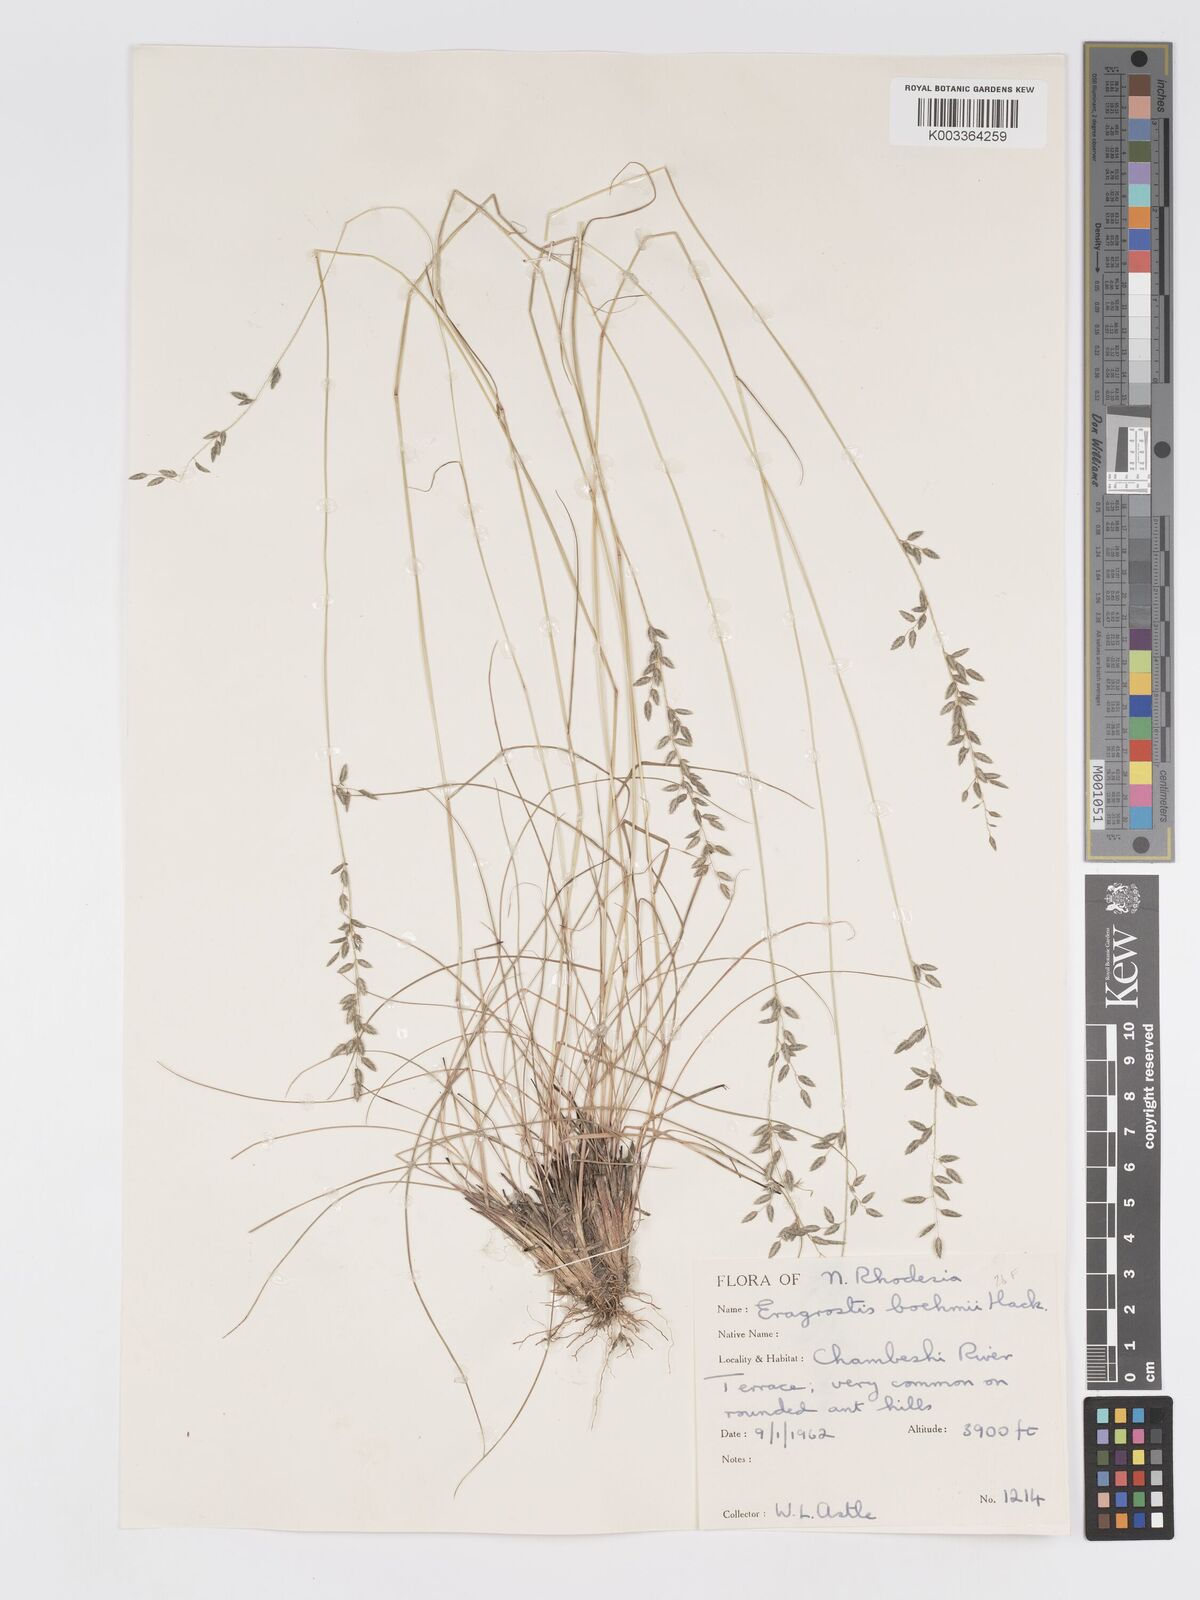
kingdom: Plantae
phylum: Tracheophyta
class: Liliopsida
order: Poales
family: Poaceae
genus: Eragrostis
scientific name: Eragrostis racemosa
